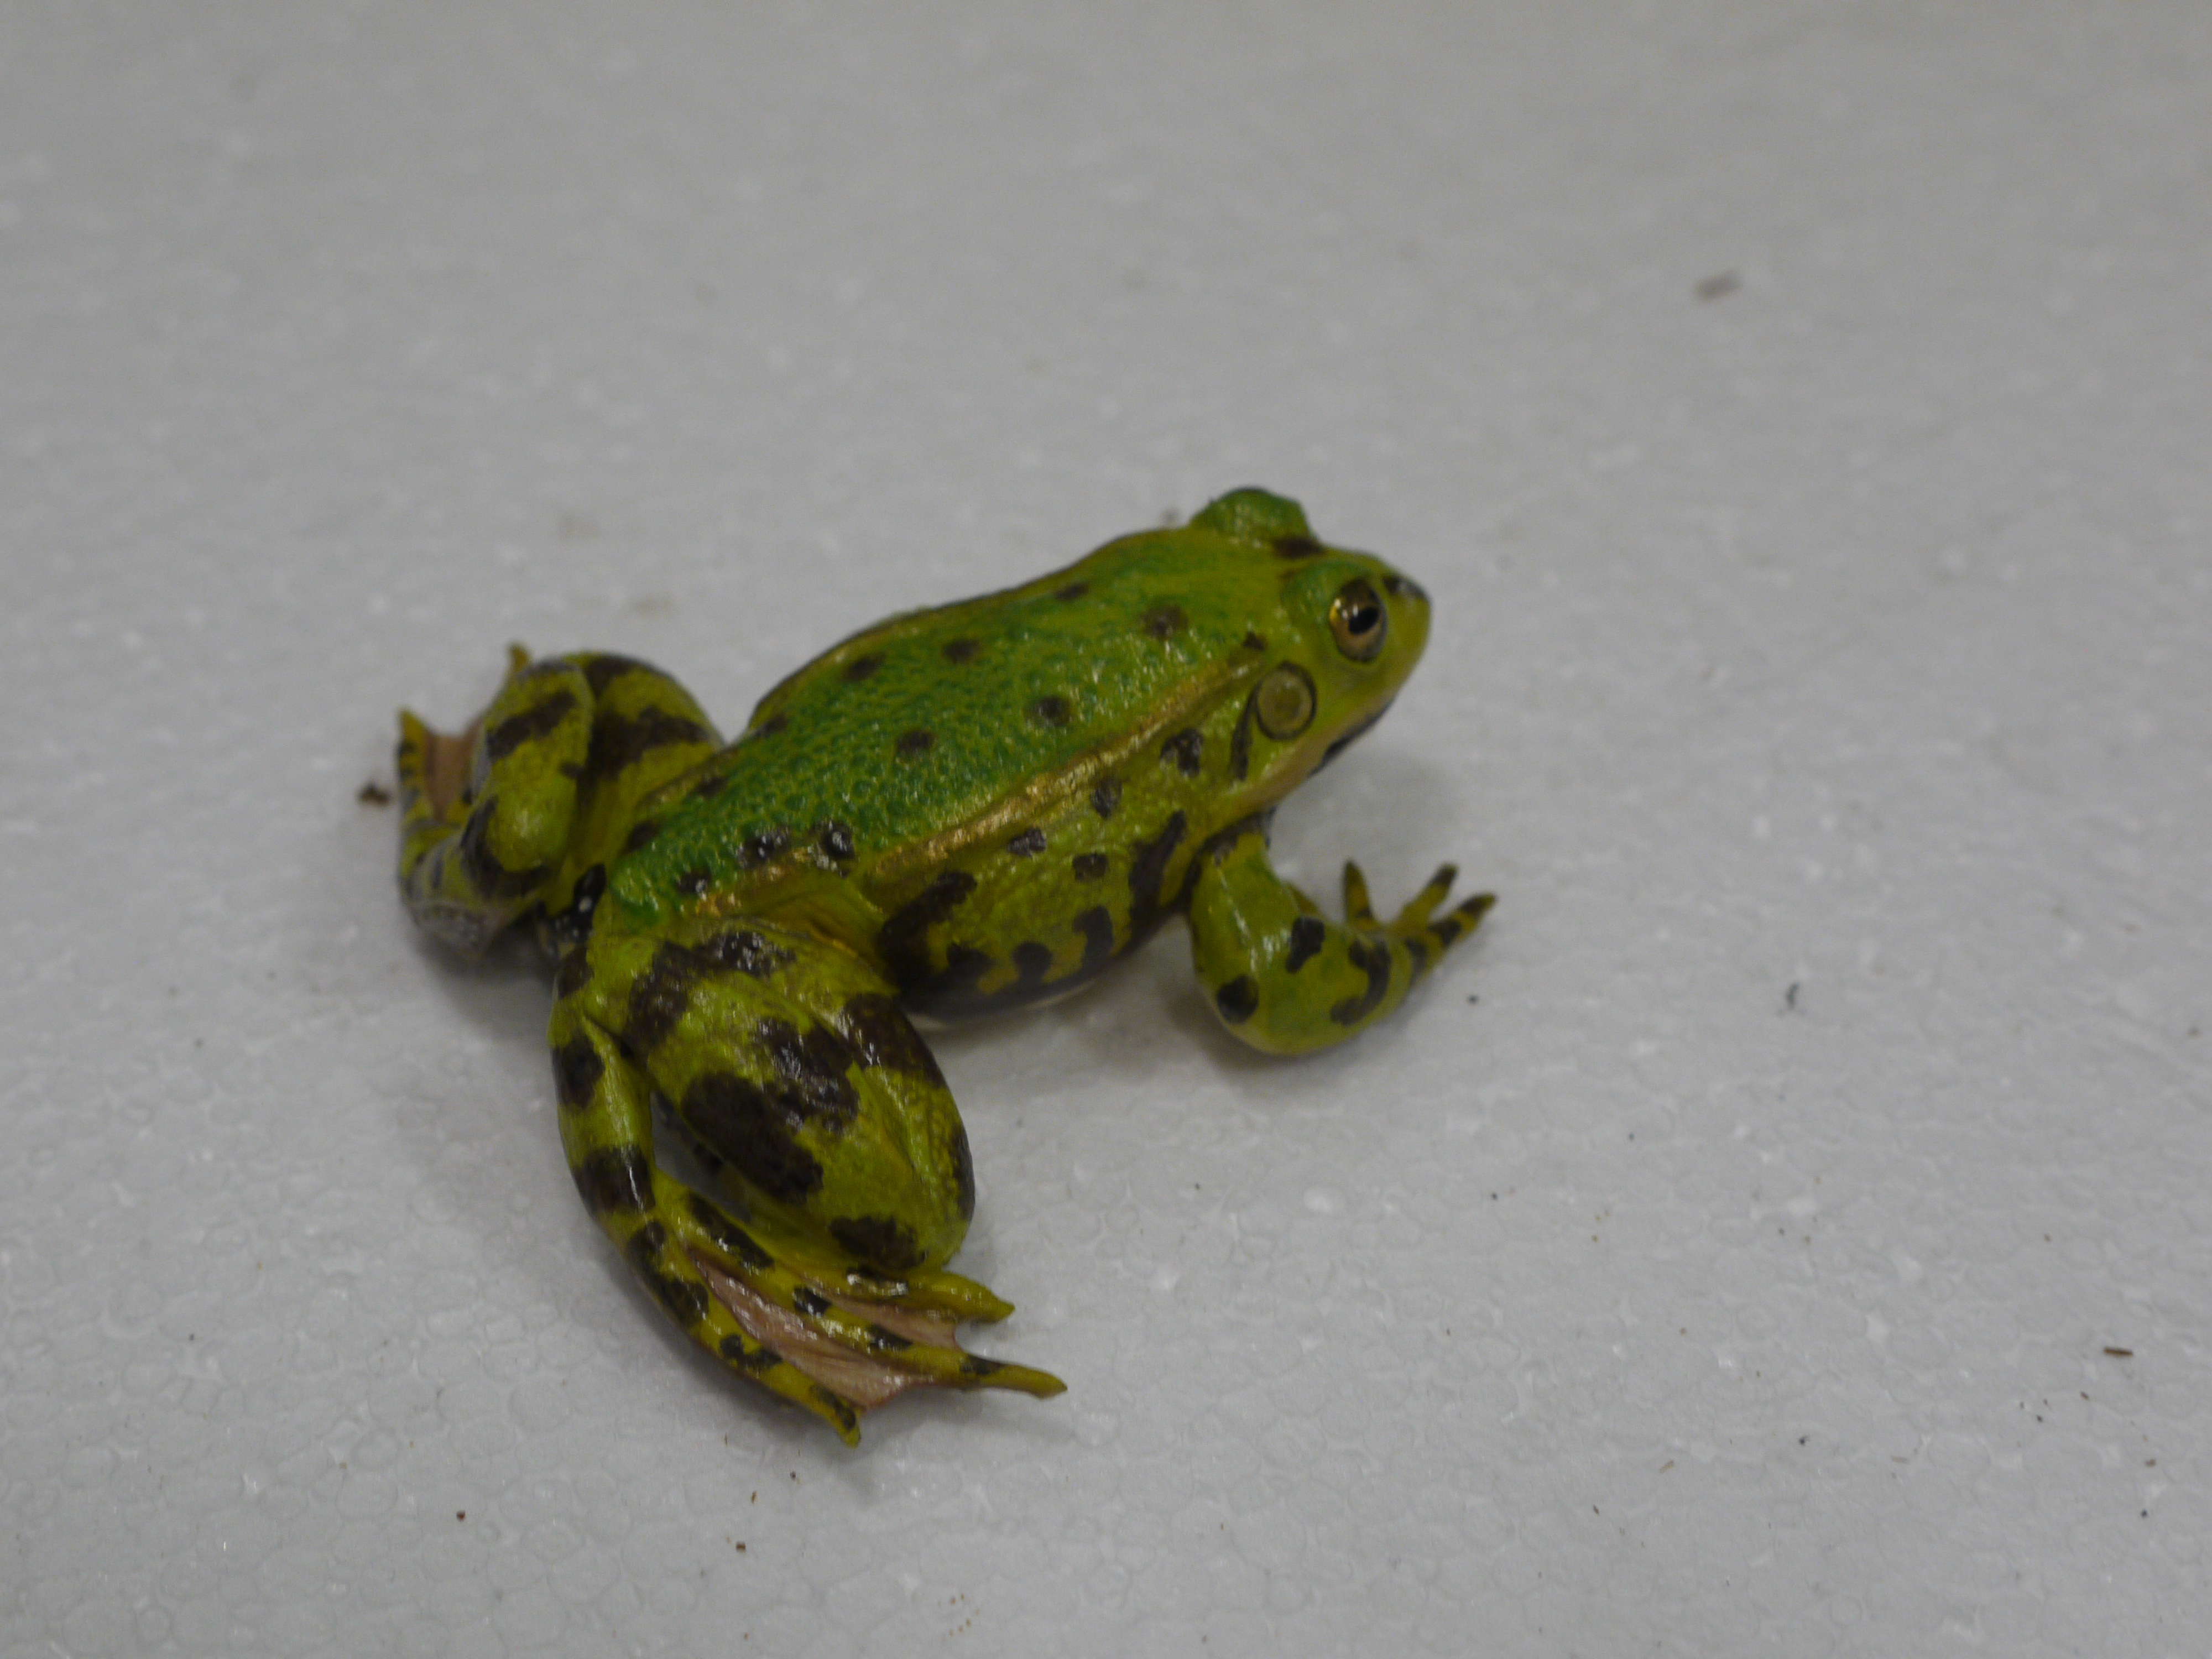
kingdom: Animalia
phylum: Chordata
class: Amphibia
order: Anura
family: Ranidae
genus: Pelophylax
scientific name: Pelophylax lessonae
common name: Pool frog
